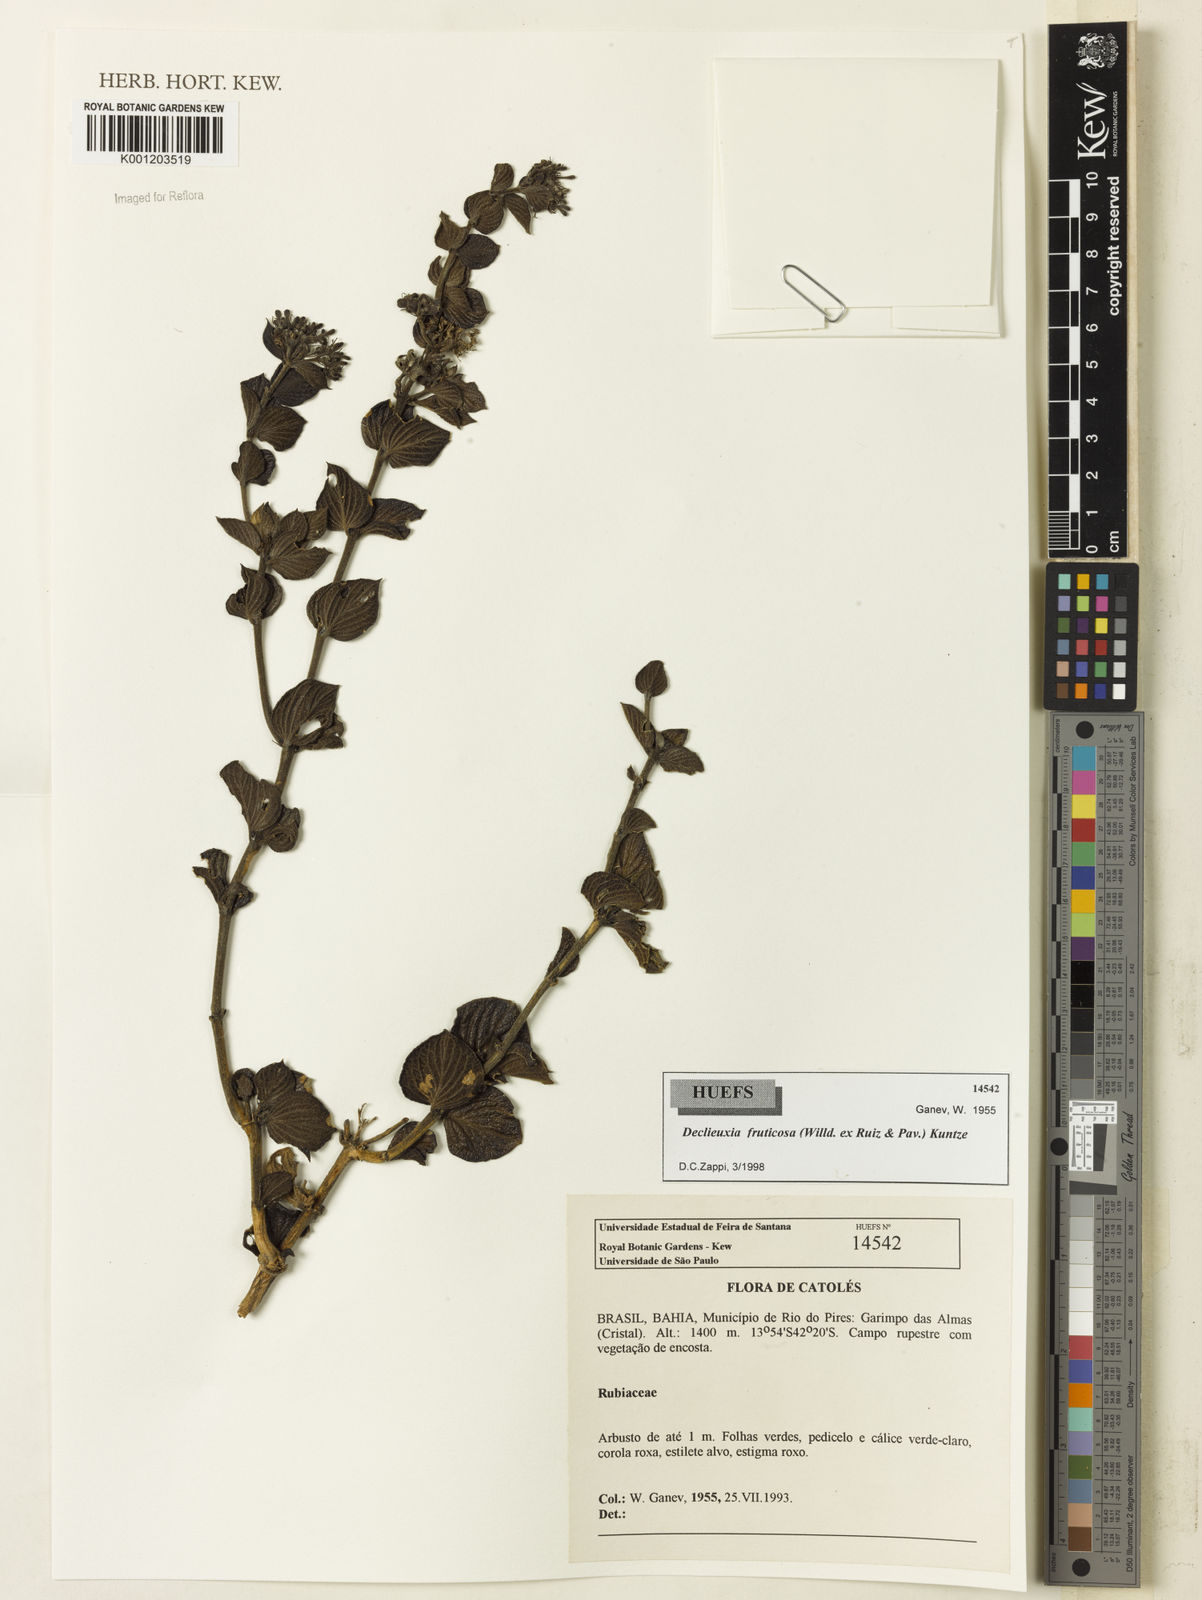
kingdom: Plantae
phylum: Tracheophyta
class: Magnoliopsida
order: Gentianales
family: Rubiaceae
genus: Declieuxia
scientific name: Declieuxia fruticosa
